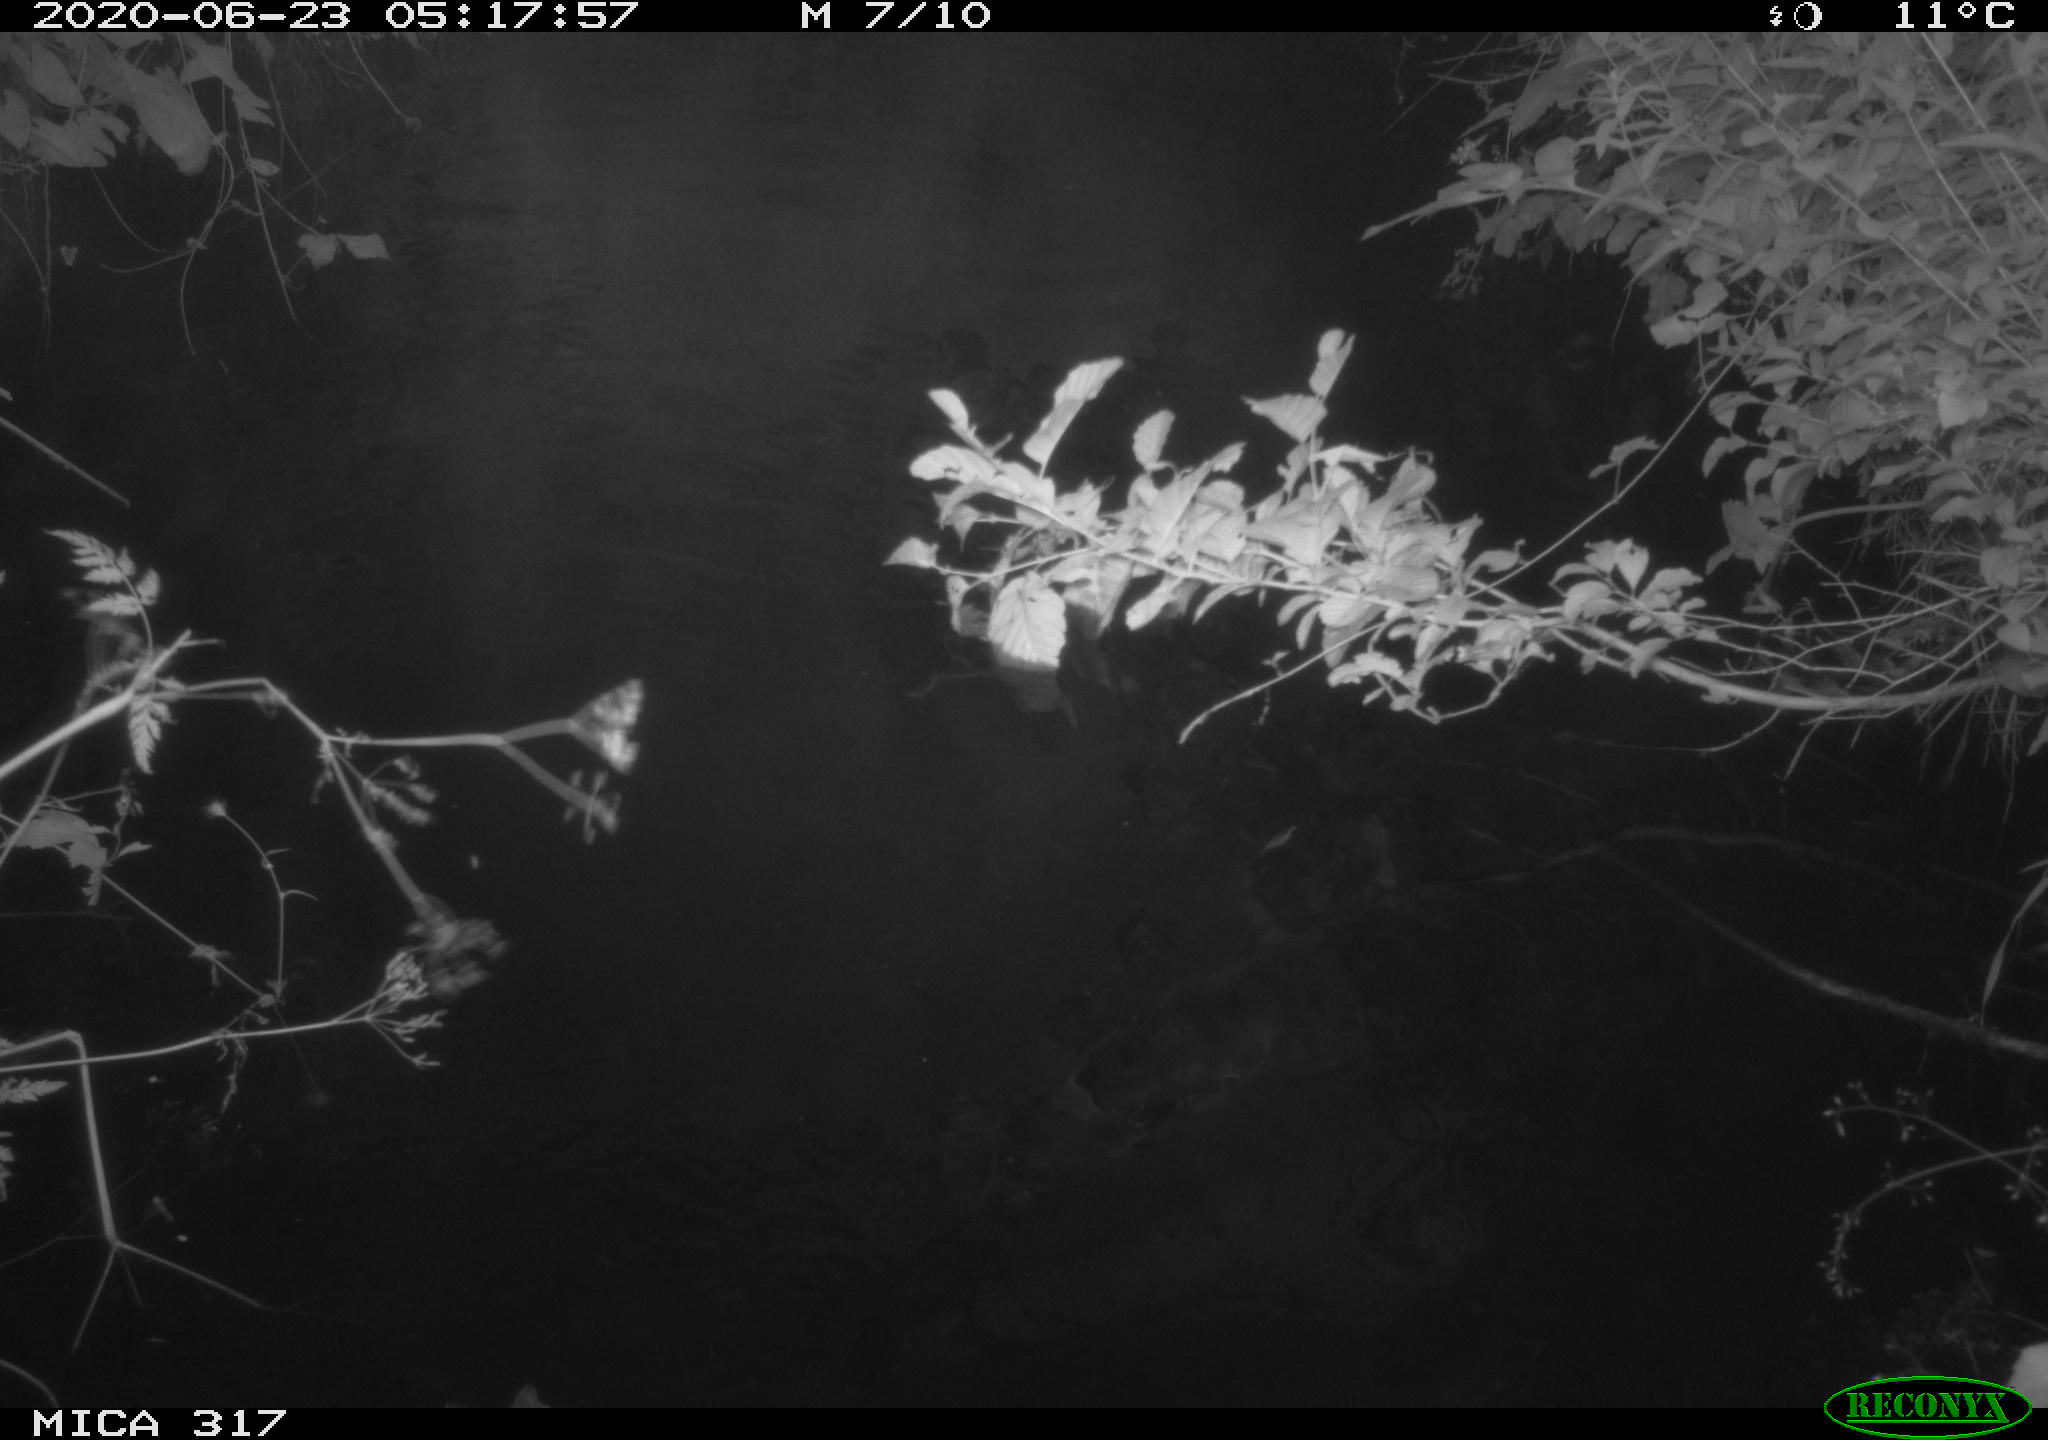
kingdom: Animalia
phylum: Chordata
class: Aves
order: Anseriformes
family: Anatidae
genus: Anas
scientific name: Anas platyrhynchos
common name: Mallard
